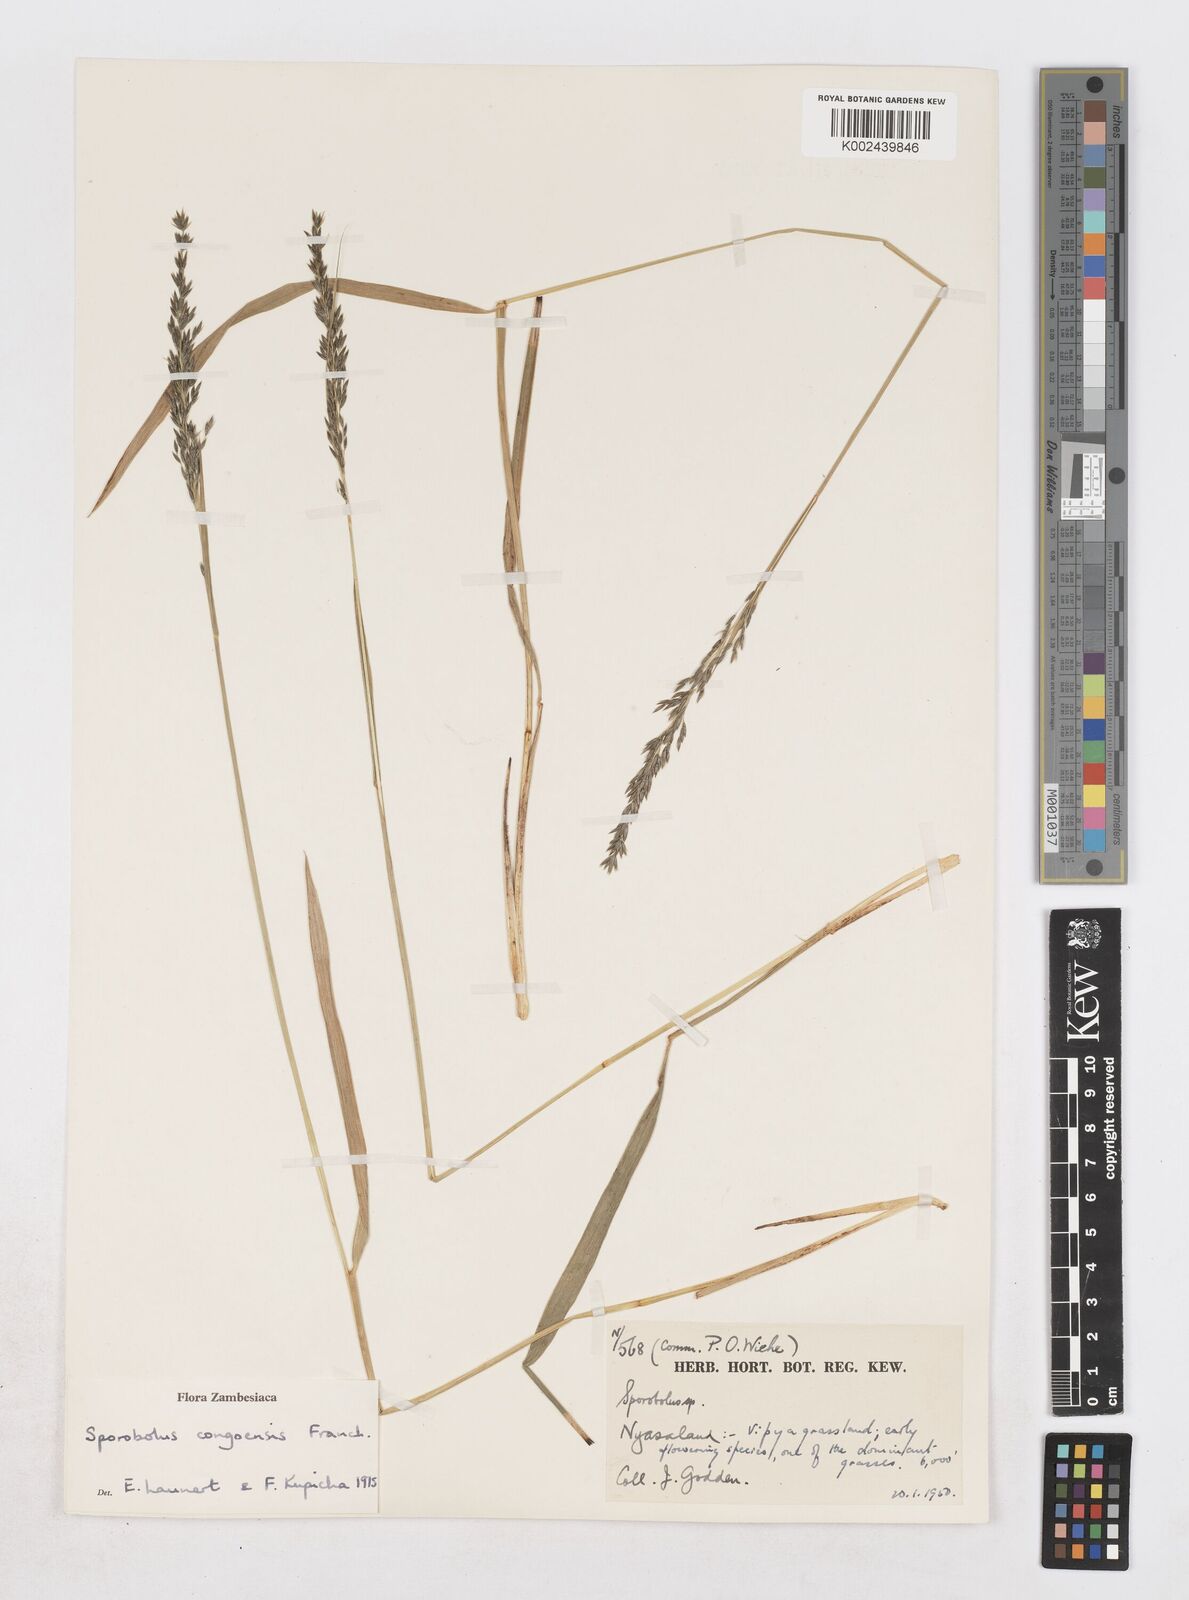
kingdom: Plantae
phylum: Tracheophyta
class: Liliopsida
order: Poales
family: Poaceae
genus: Sporobolus
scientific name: Sporobolus congoensis
